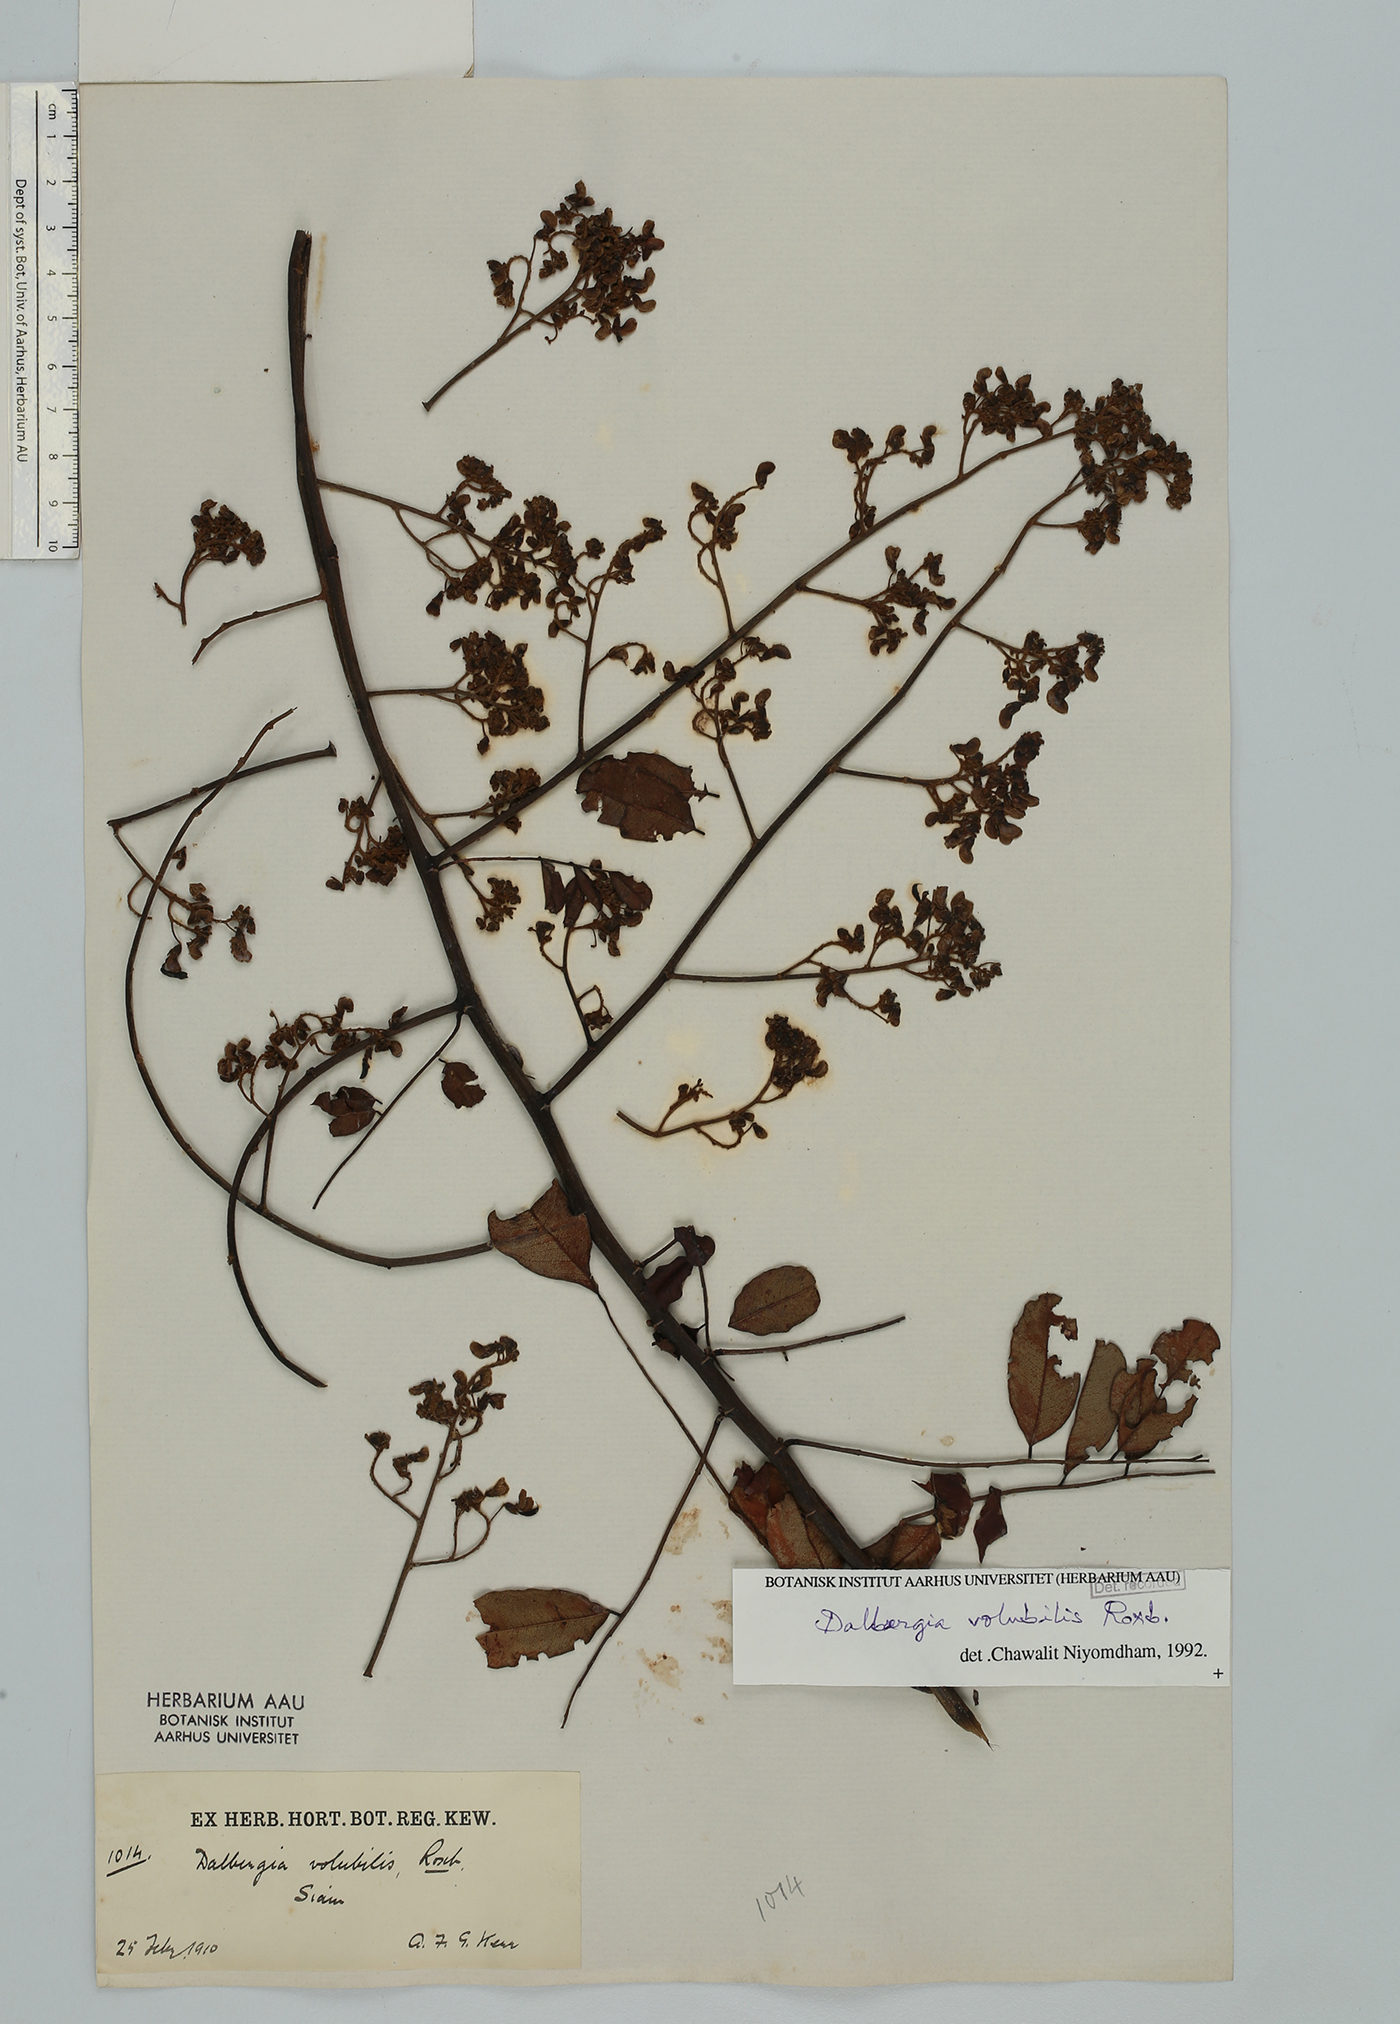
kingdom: Plantae
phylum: Tracheophyta
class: Magnoliopsida
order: Fabales
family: Fabaceae
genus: Dalbergia
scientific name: Dalbergia volubilis
